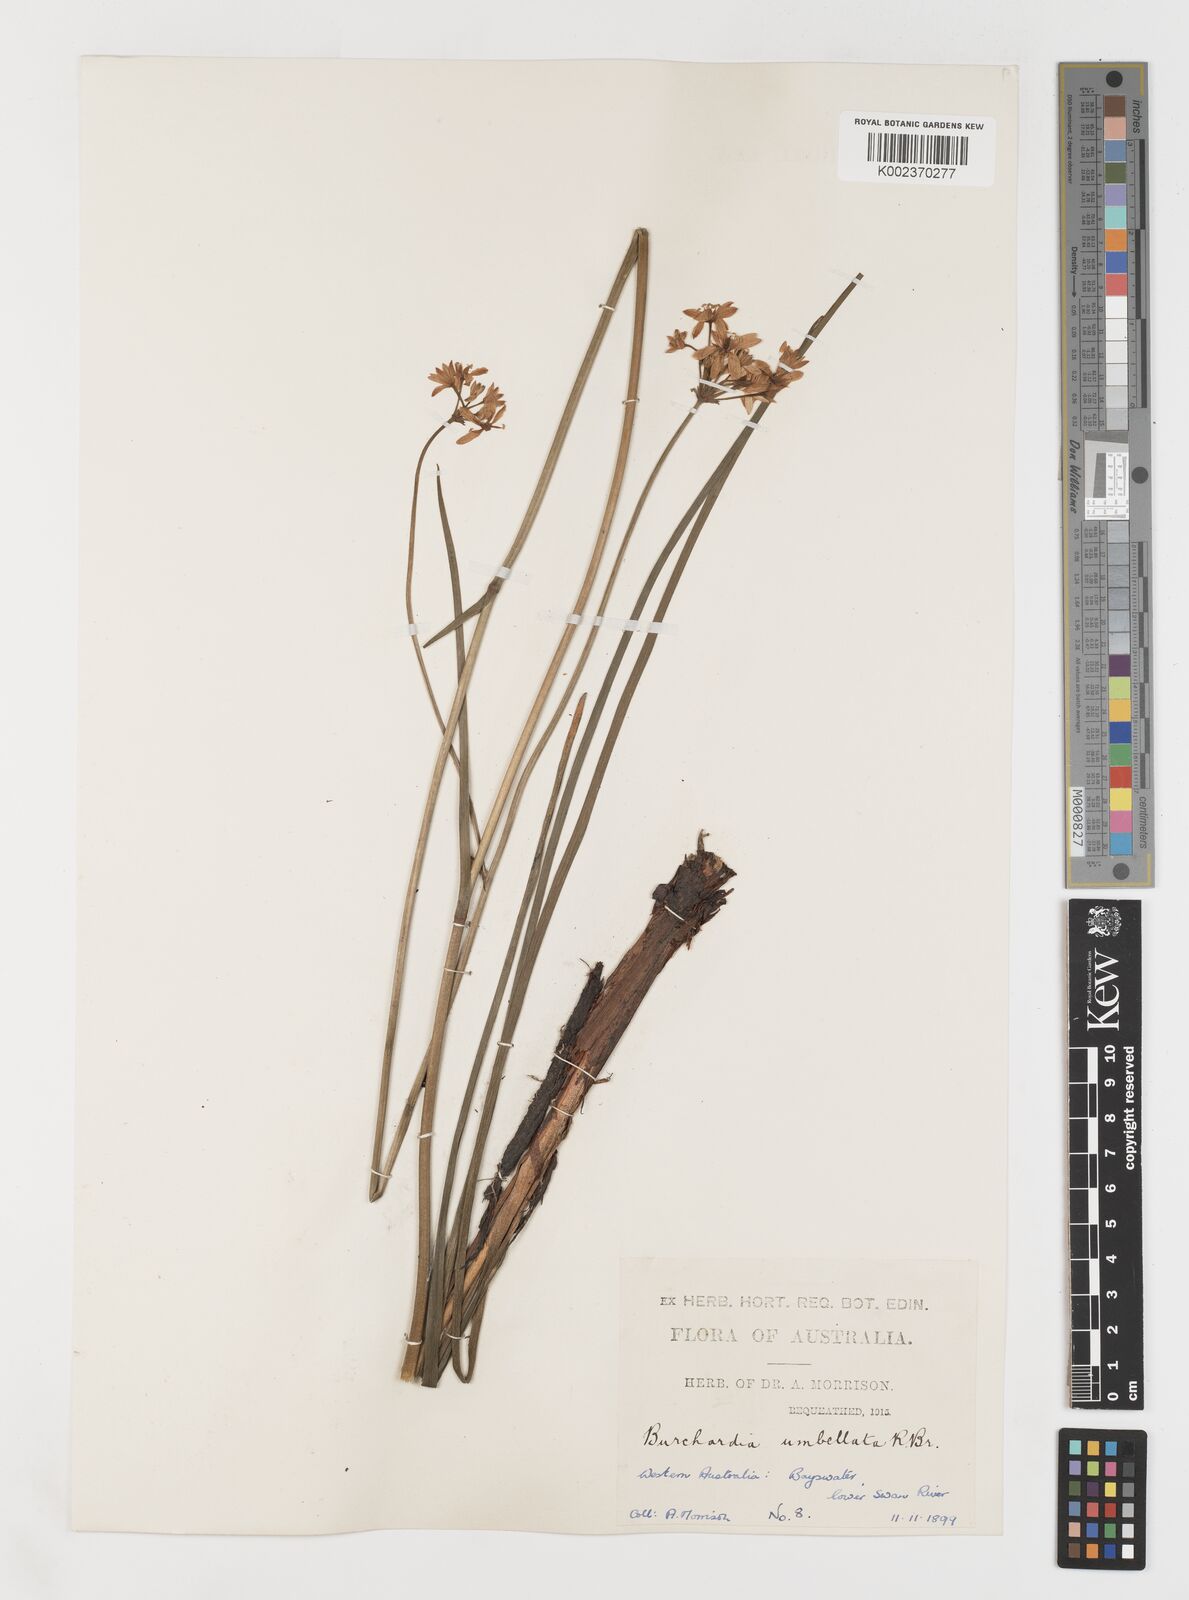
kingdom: Plantae
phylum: Tracheophyta
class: Liliopsida
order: Liliales
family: Colchicaceae
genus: Burchardia
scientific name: Burchardia umbellata
